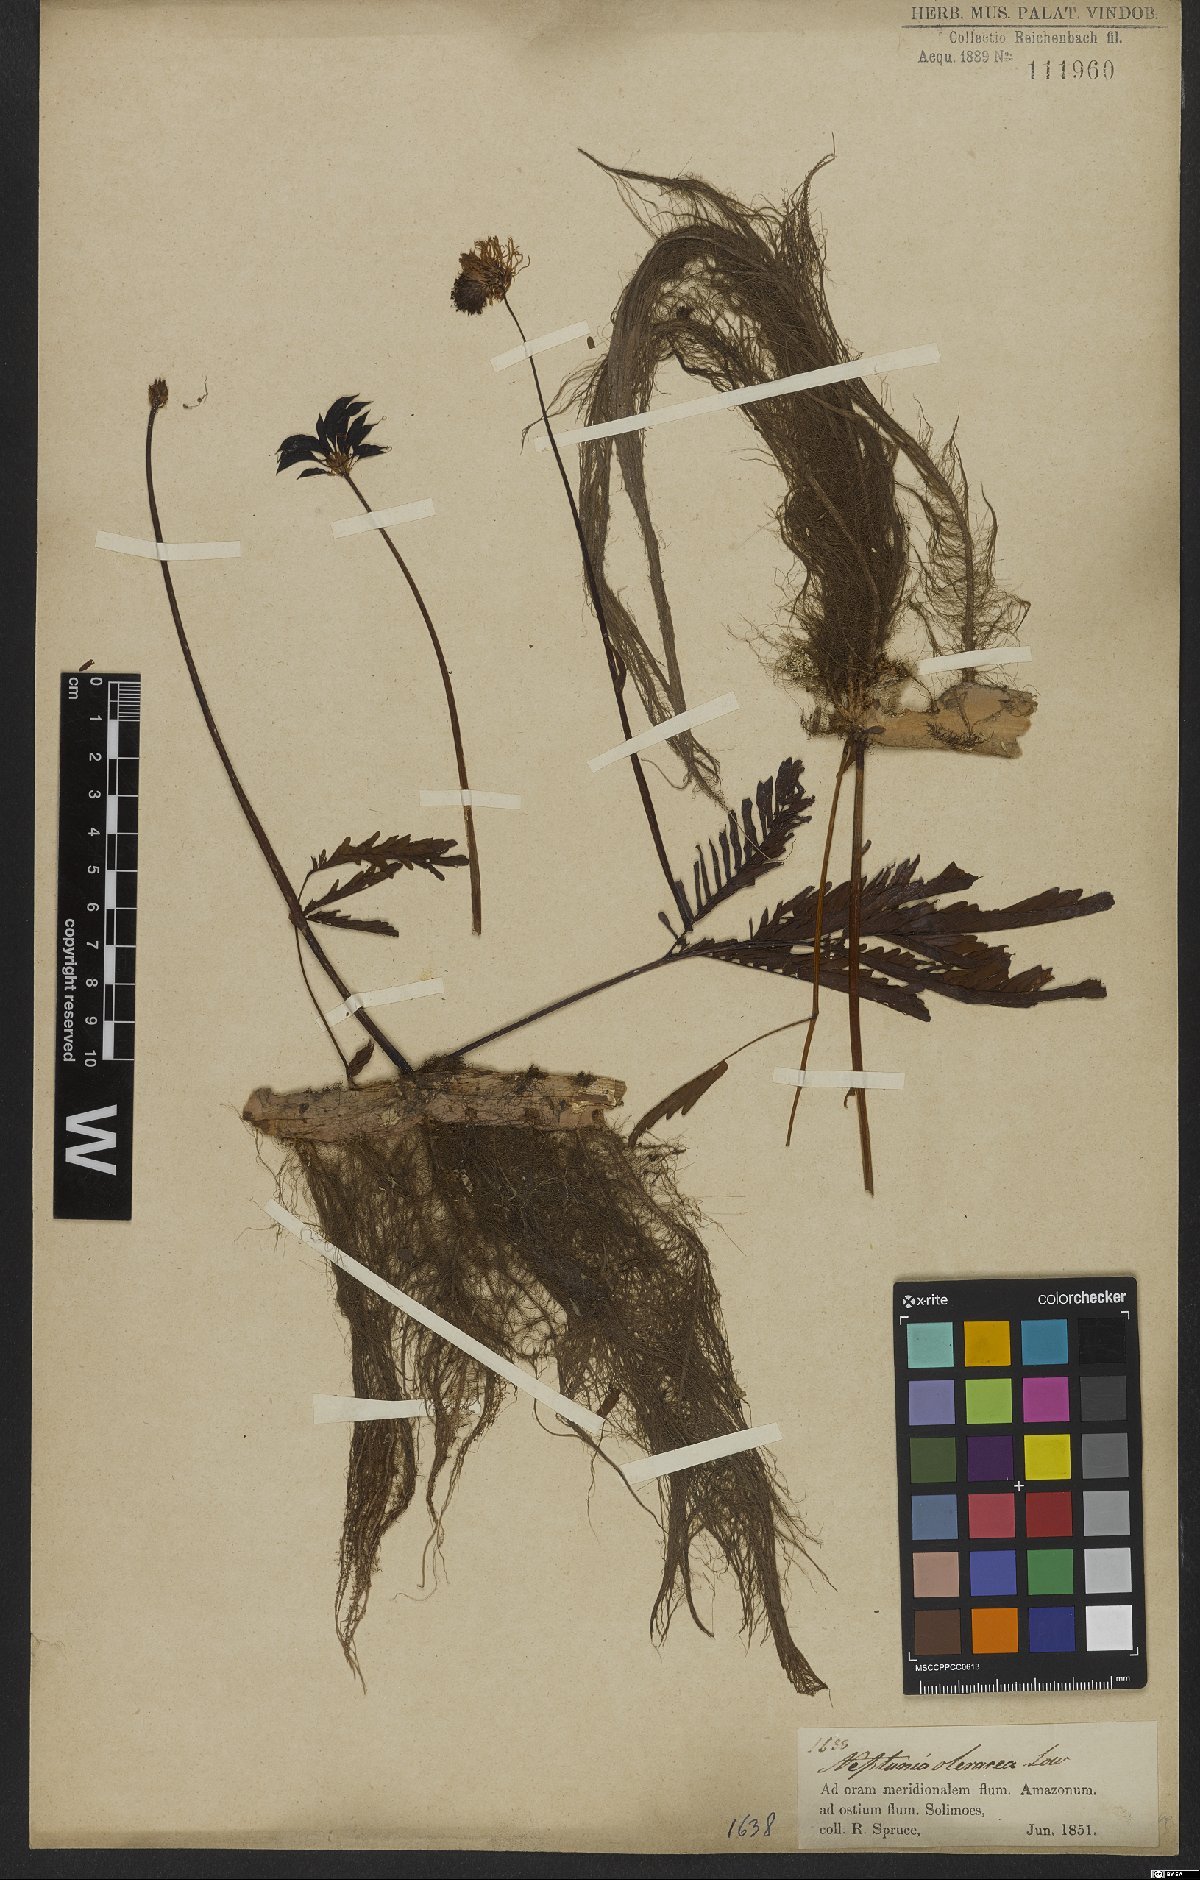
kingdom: Plantae
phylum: Tracheophyta
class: Magnoliopsida
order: Fabales
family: Fabaceae
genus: Neptunia
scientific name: Neptunia prostrata
